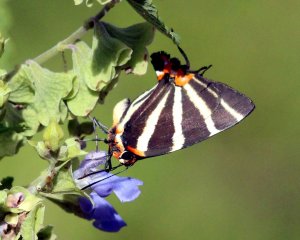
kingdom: Animalia
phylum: Arthropoda
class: Insecta
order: Lepidoptera
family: Lycaenidae
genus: Thecla
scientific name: Thecla bathildis
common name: Zebra-striped Hairstreak
